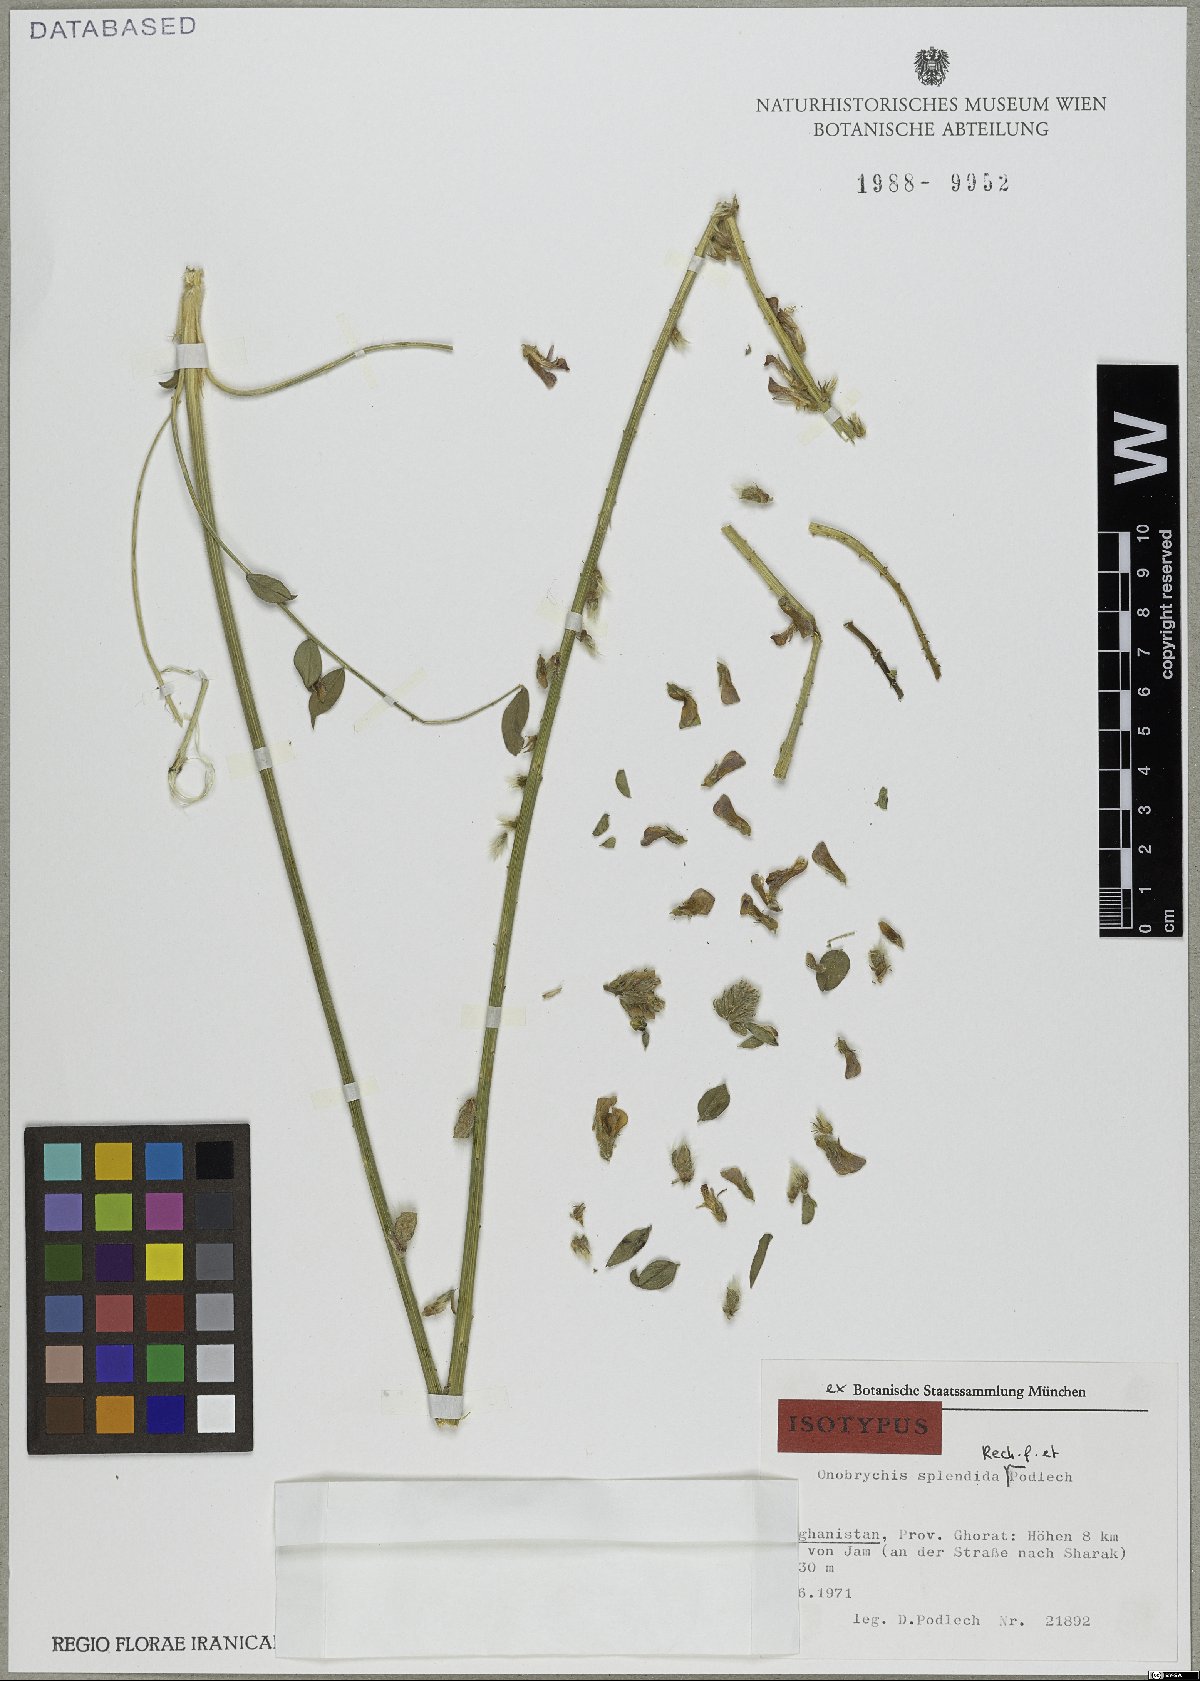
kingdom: Plantae
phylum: Tracheophyta
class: Magnoliopsida
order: Fabales
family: Fabaceae
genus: Onobrychis
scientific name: Onobrychis splendida
